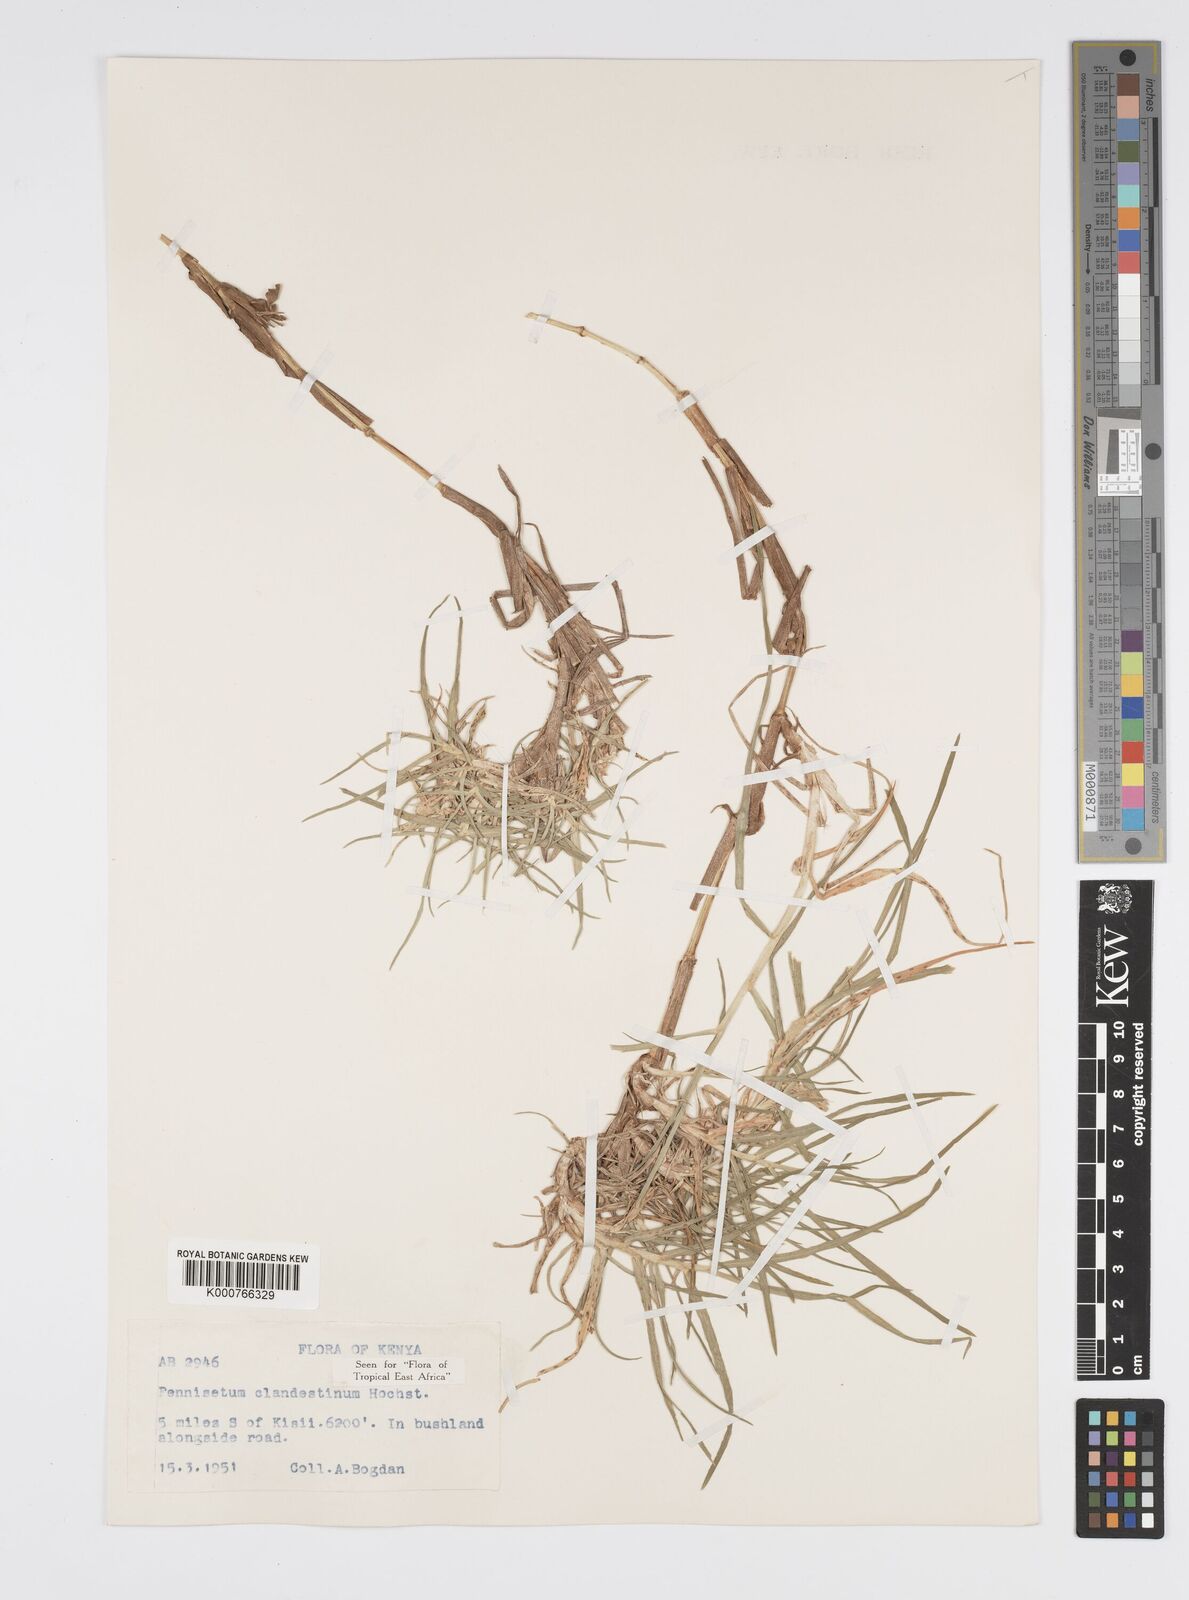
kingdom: Plantae
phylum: Tracheophyta
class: Liliopsida
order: Poales
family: Poaceae
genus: Cenchrus
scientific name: Cenchrus clandestinus
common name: Kikuyugrass
